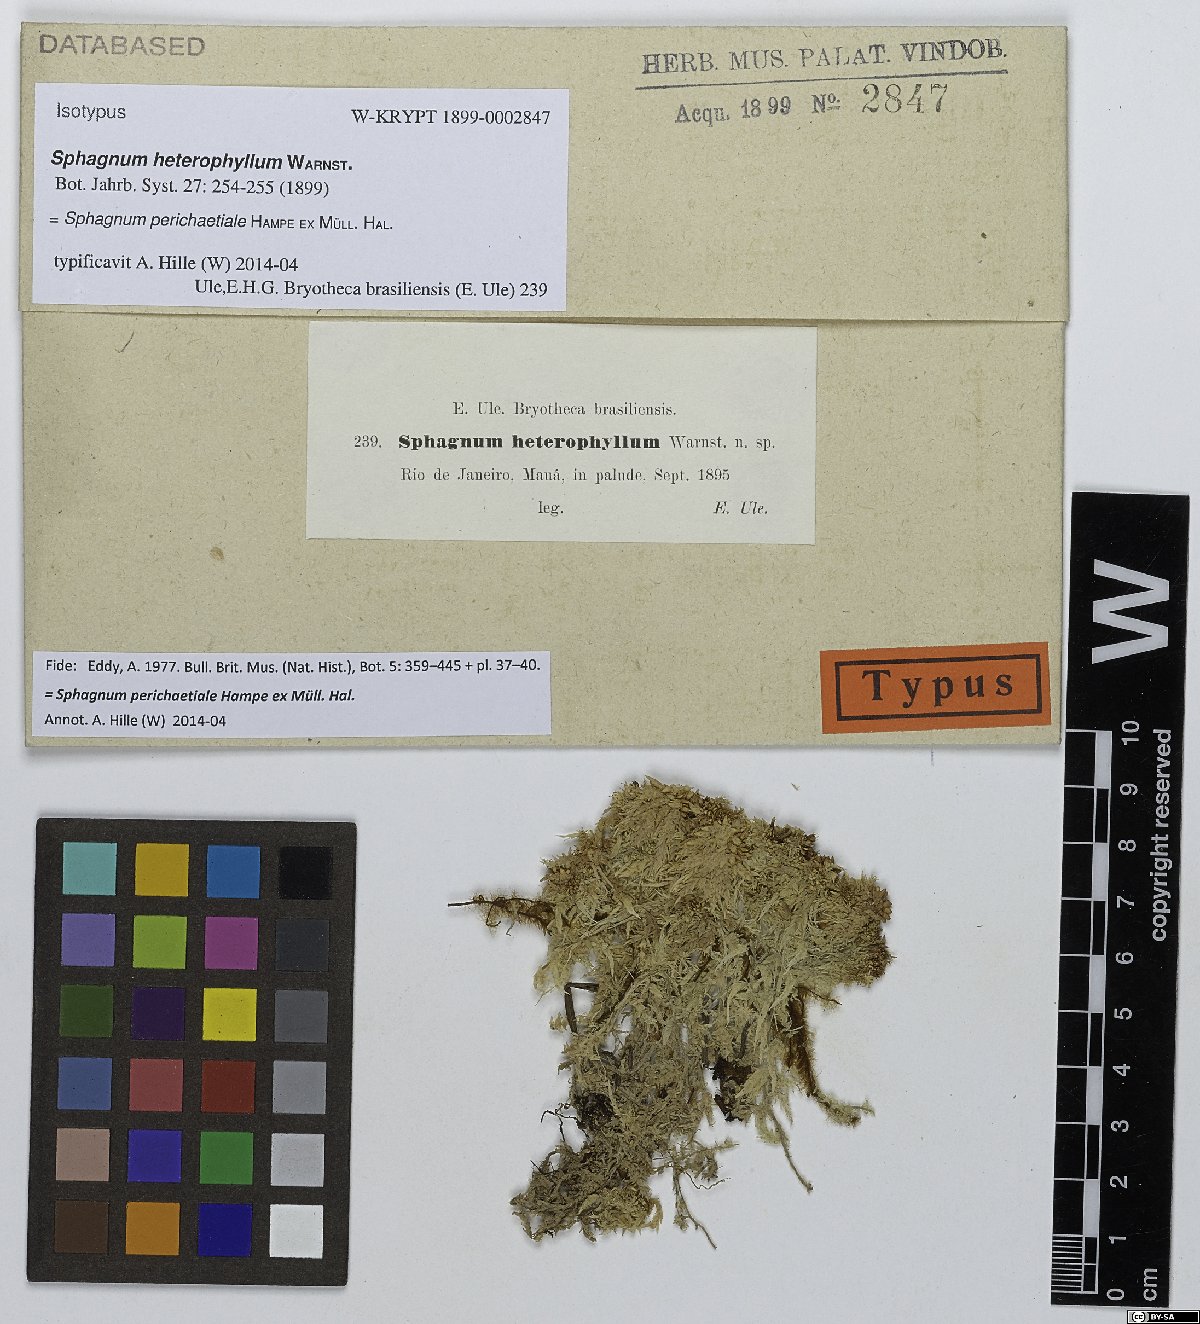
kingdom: Plantae
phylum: Bryophyta
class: Sphagnopsida
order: Sphagnales
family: Sphagnaceae
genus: Sphagnum
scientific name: Sphagnum perichaetiale
